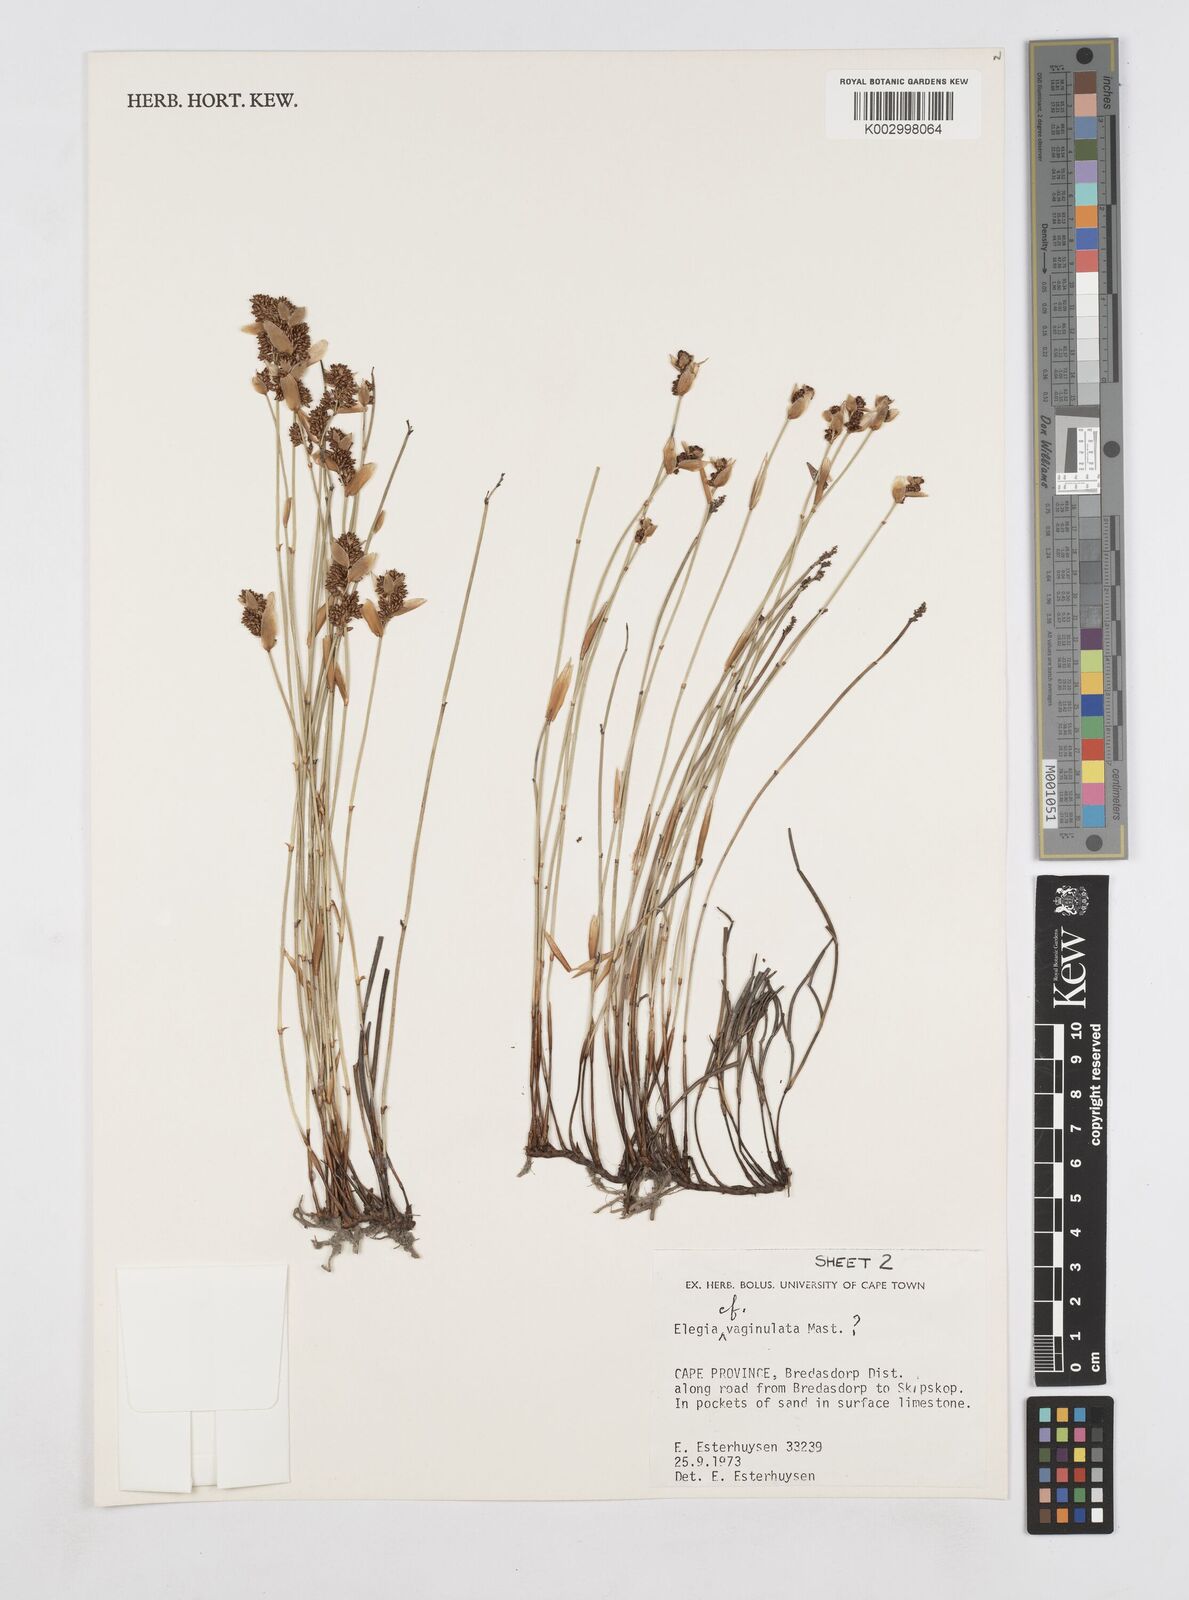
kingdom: Plantae
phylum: Tracheophyta
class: Liliopsida
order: Poales
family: Restionaceae
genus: Elegia
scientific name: Elegia vaginulata
